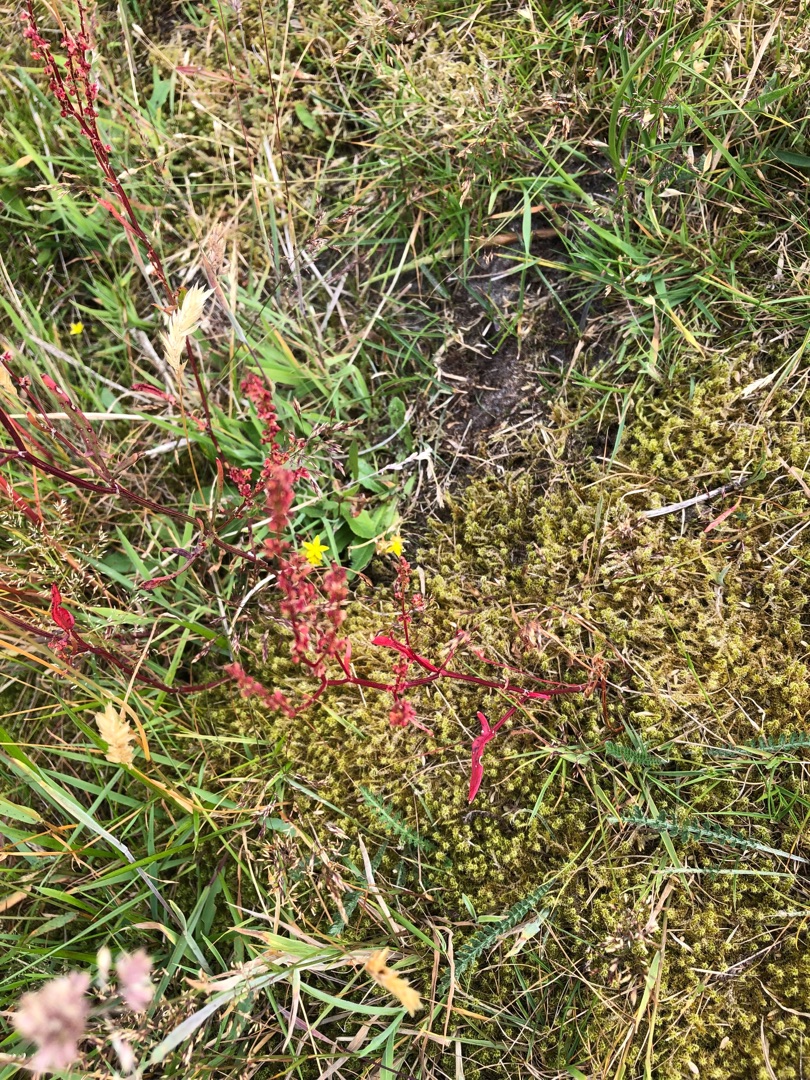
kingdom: Plantae
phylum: Tracheophyta
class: Magnoliopsida
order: Caryophyllales
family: Polygonaceae
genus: Rumex
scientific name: Rumex acetosella
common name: Rødknæ
